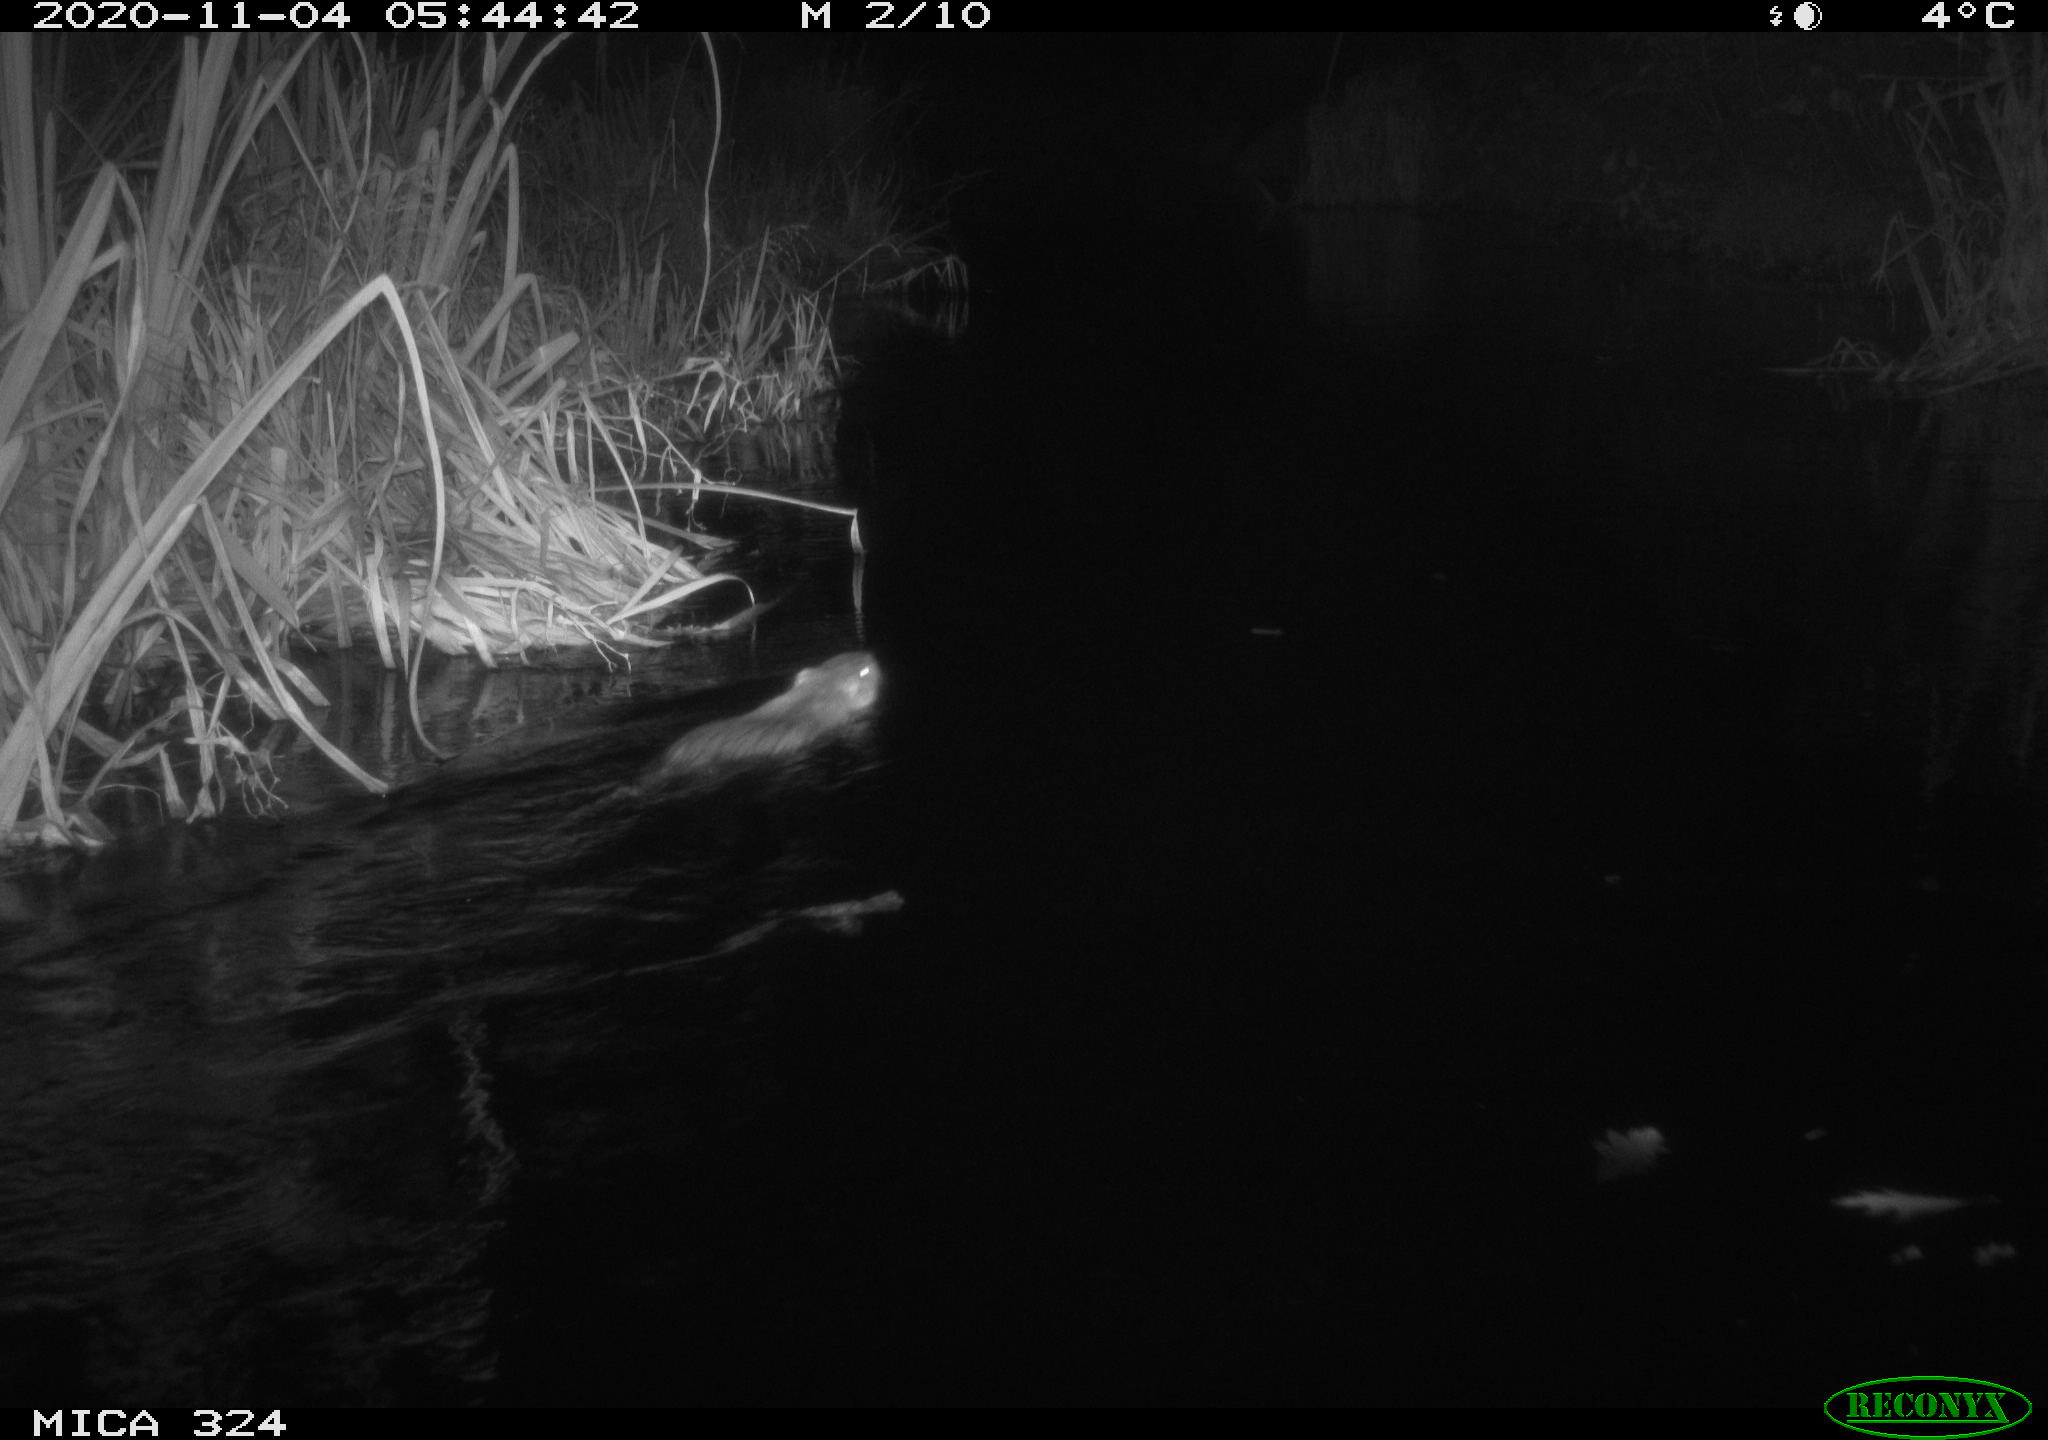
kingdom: Animalia
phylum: Chordata
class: Mammalia
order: Rodentia
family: Myocastoridae
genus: Myocastor
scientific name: Myocastor coypus
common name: Coypu
